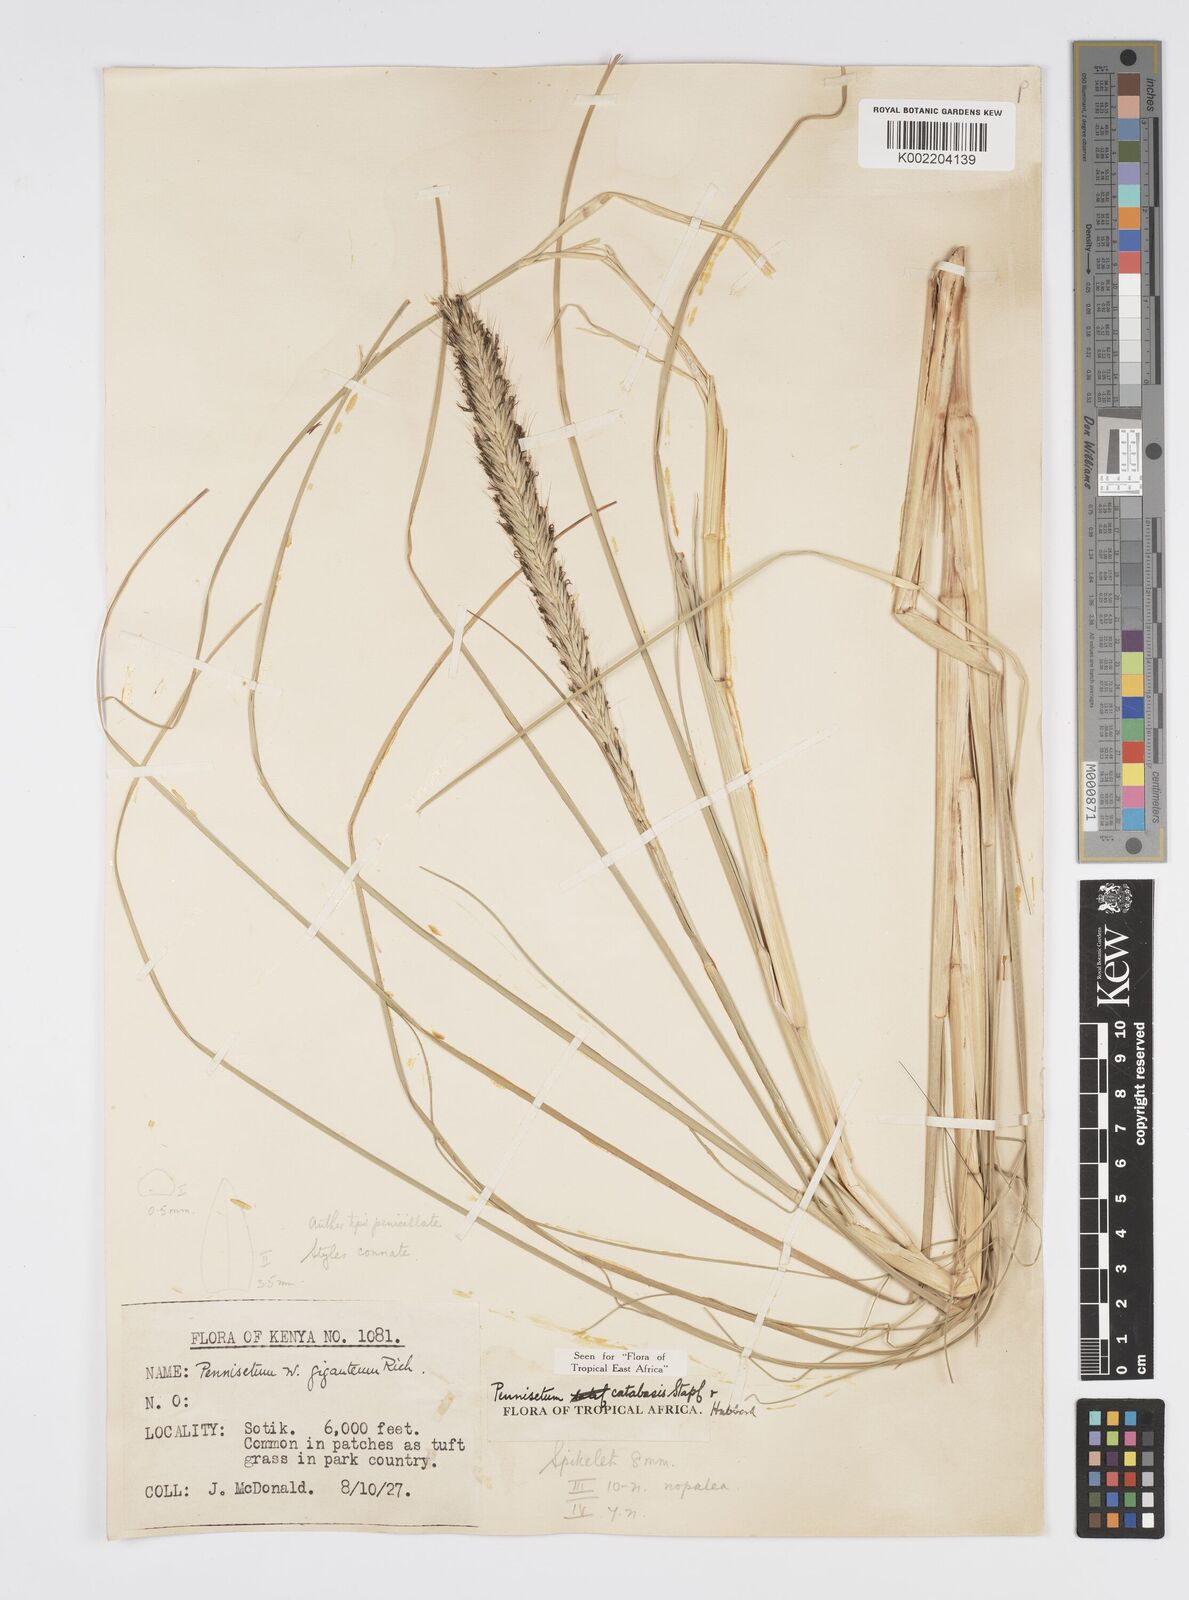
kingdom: Plantae
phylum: Tracheophyta
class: Liliopsida
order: Poales
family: Poaceae
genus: Cenchrus
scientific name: Cenchrus Pennisetum spec
